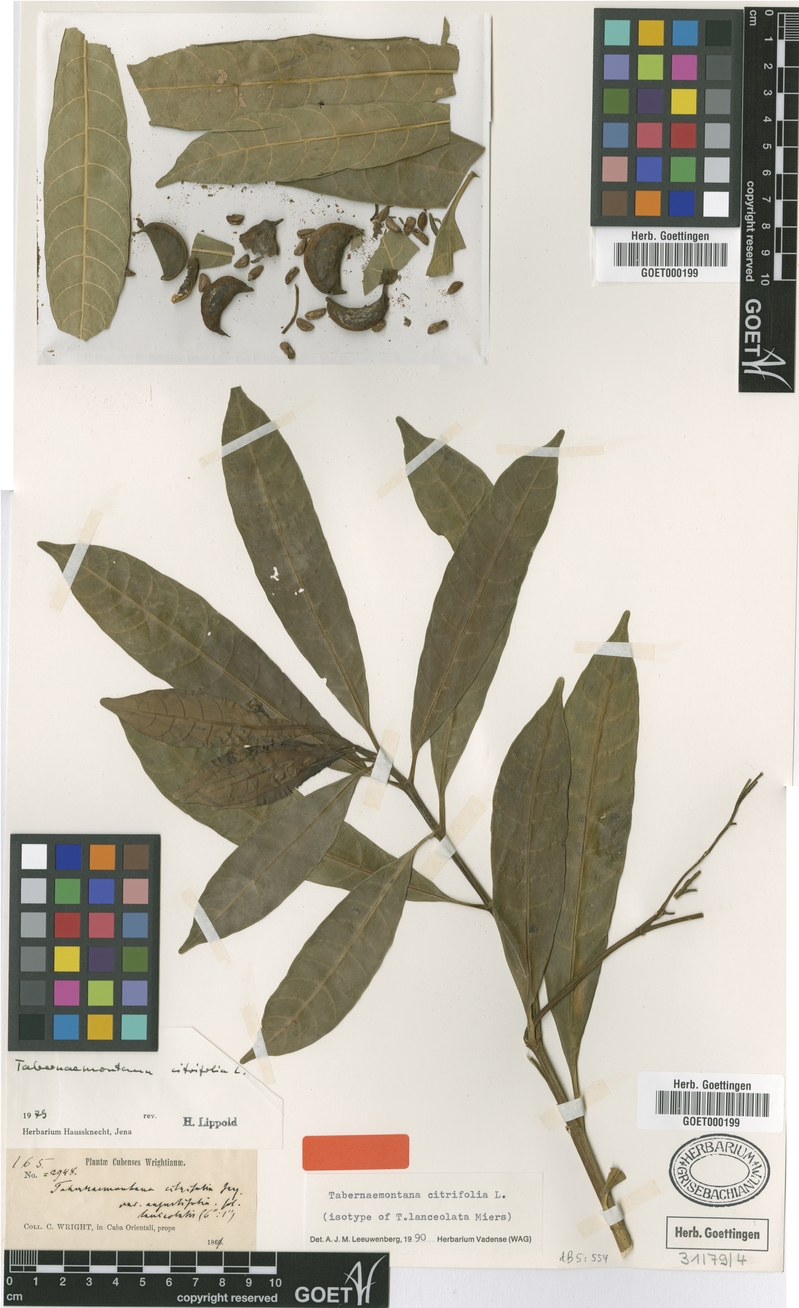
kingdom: Plantae
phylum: Tracheophyta
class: Magnoliopsida
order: Gentianales
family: Apocynaceae
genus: Tabernaemontana
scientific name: Tabernaemontana citrifolia
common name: Milky tree
